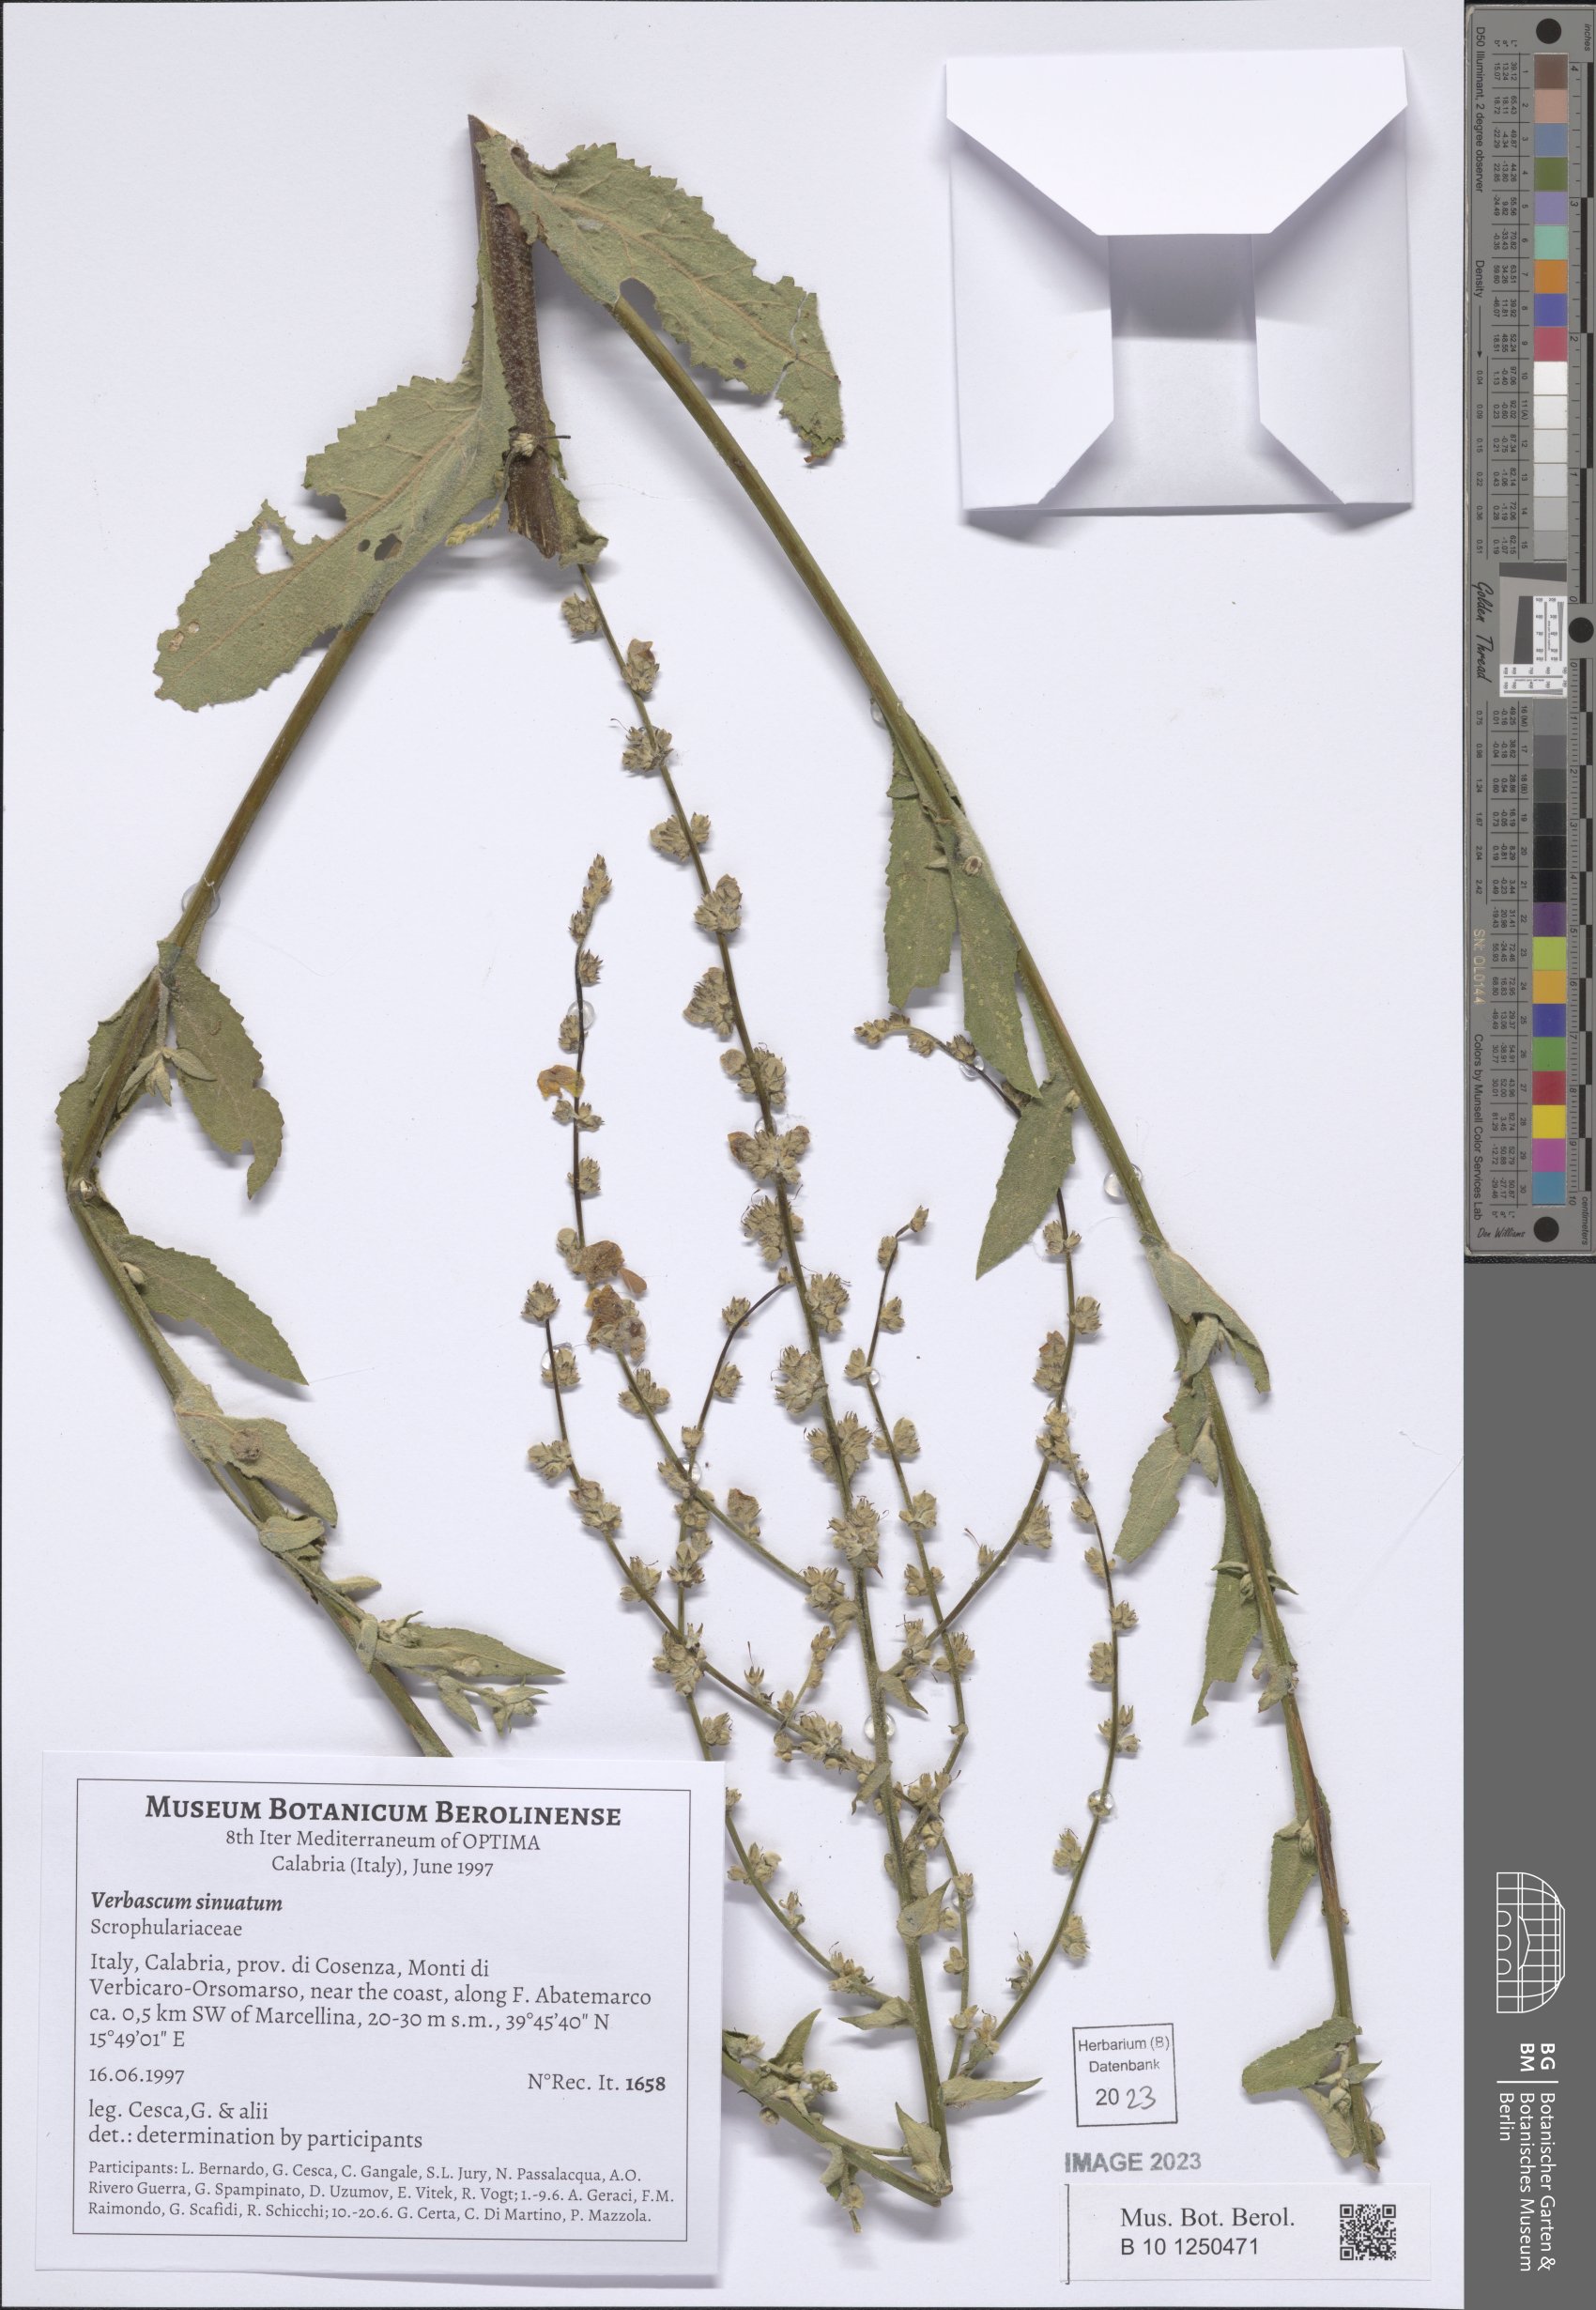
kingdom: Plantae
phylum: Tracheophyta
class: Magnoliopsida
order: Lamiales
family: Scrophulariaceae
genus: Verbascum
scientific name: Verbascum sinuatum
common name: Wavyleaf mullein
